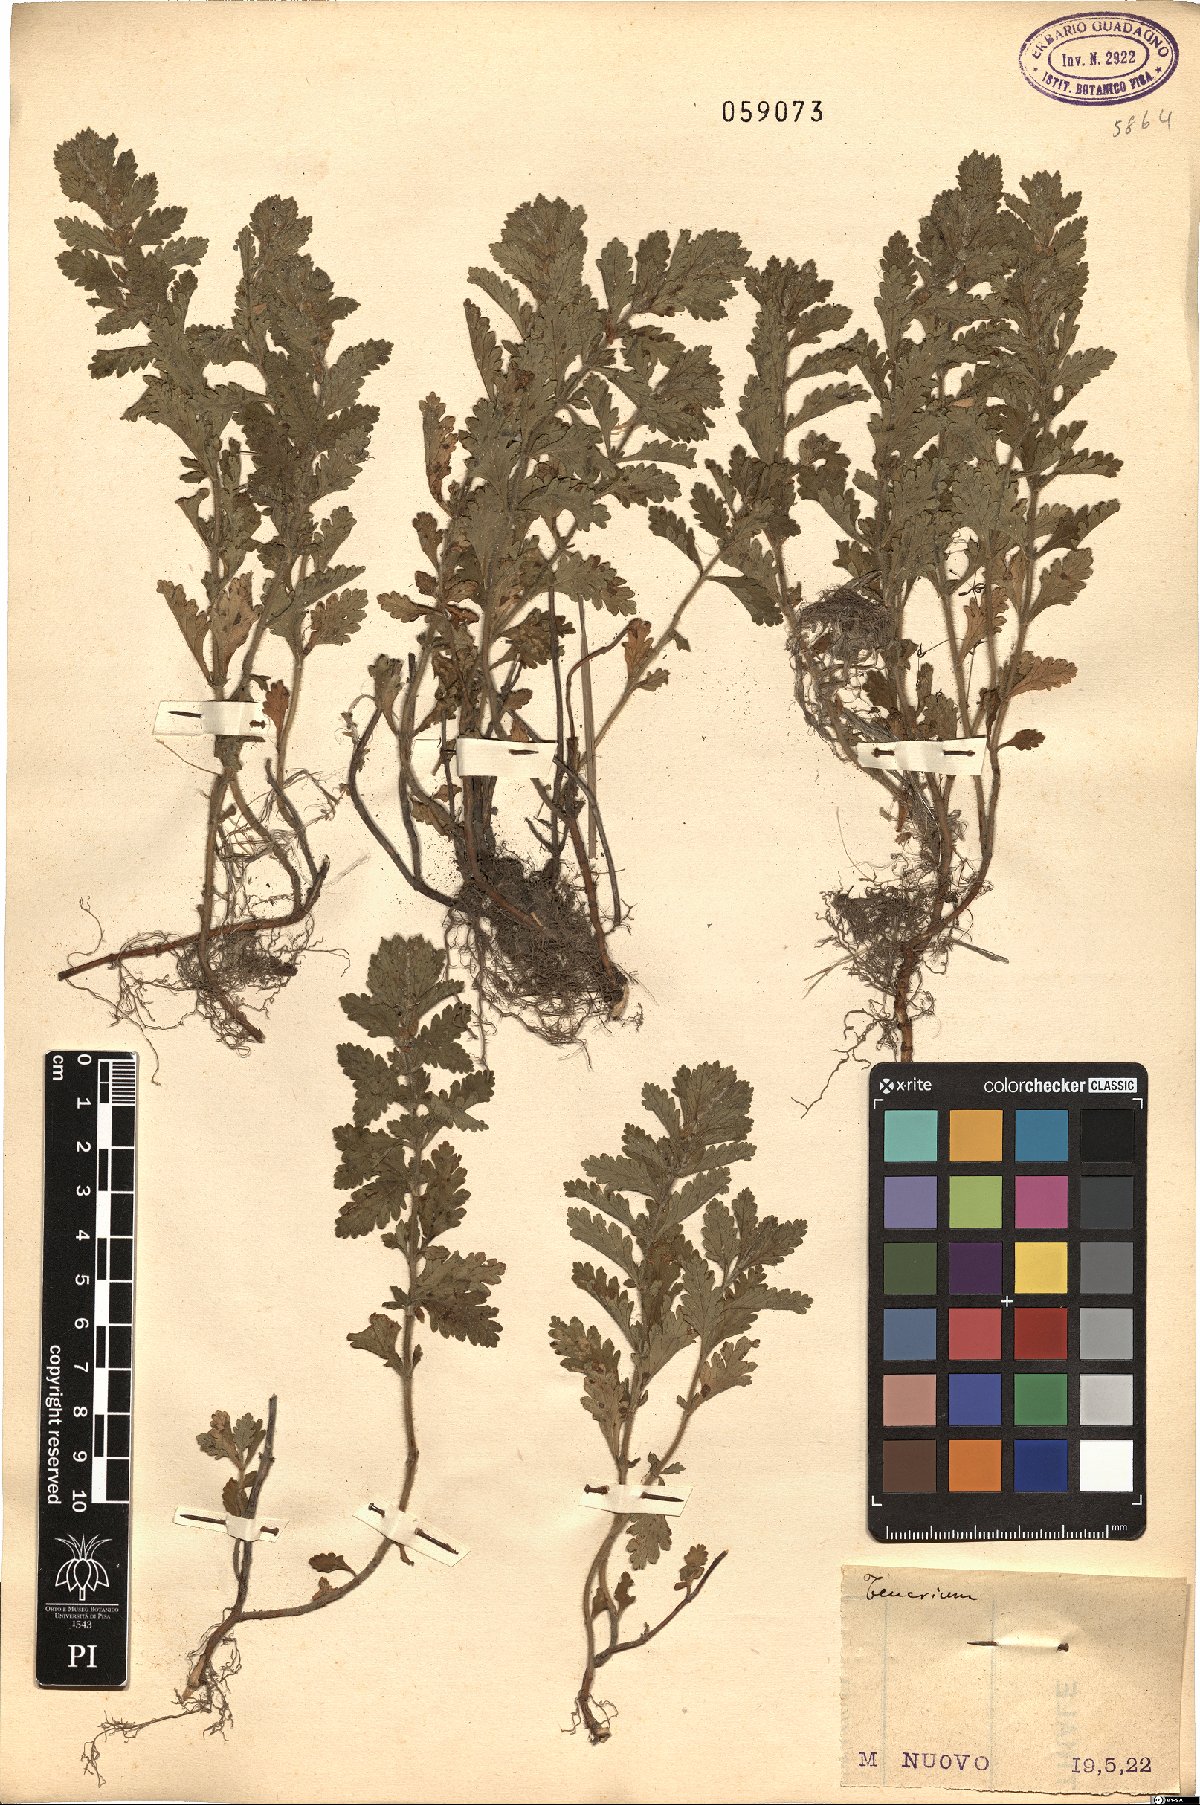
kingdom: Plantae
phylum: Tracheophyta
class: Magnoliopsida
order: Lamiales
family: Lamiaceae
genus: Teucrium
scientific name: Teucrium
